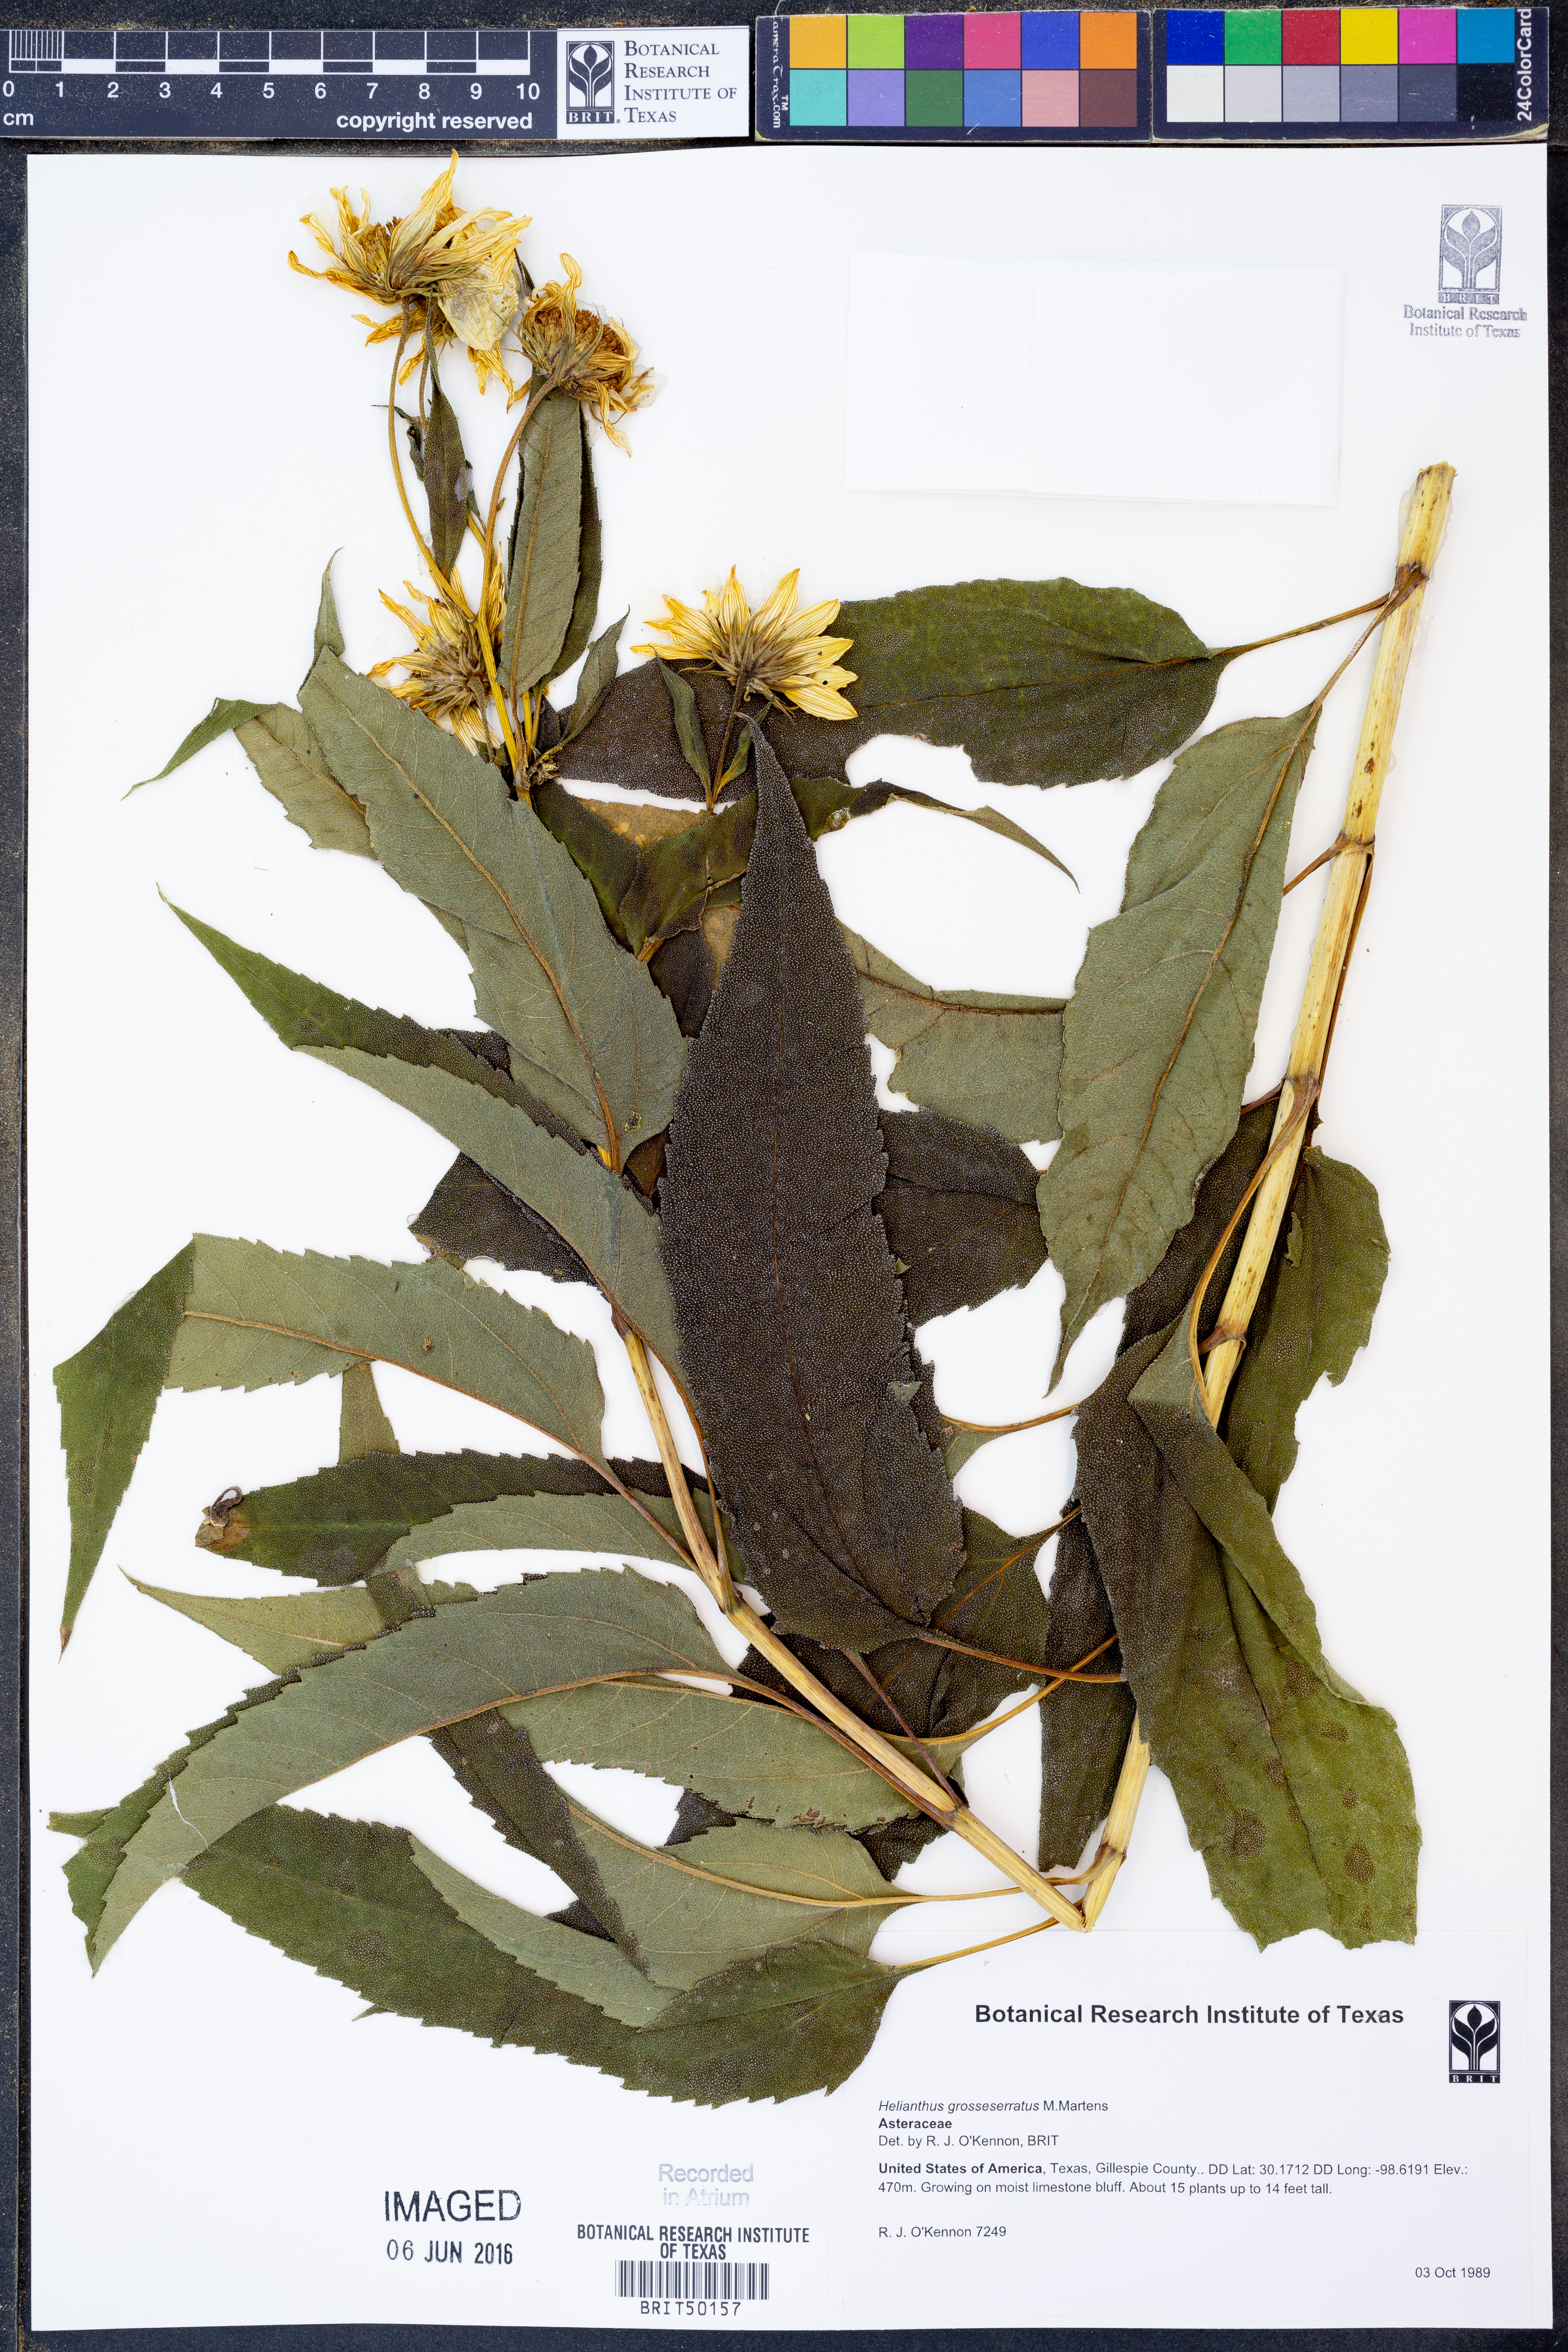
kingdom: Plantae
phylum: Tracheophyta
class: Magnoliopsida
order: Asterales
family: Asteraceae
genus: Helianthus
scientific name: Helianthus grosseserratus
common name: Sawtooth sunflower
